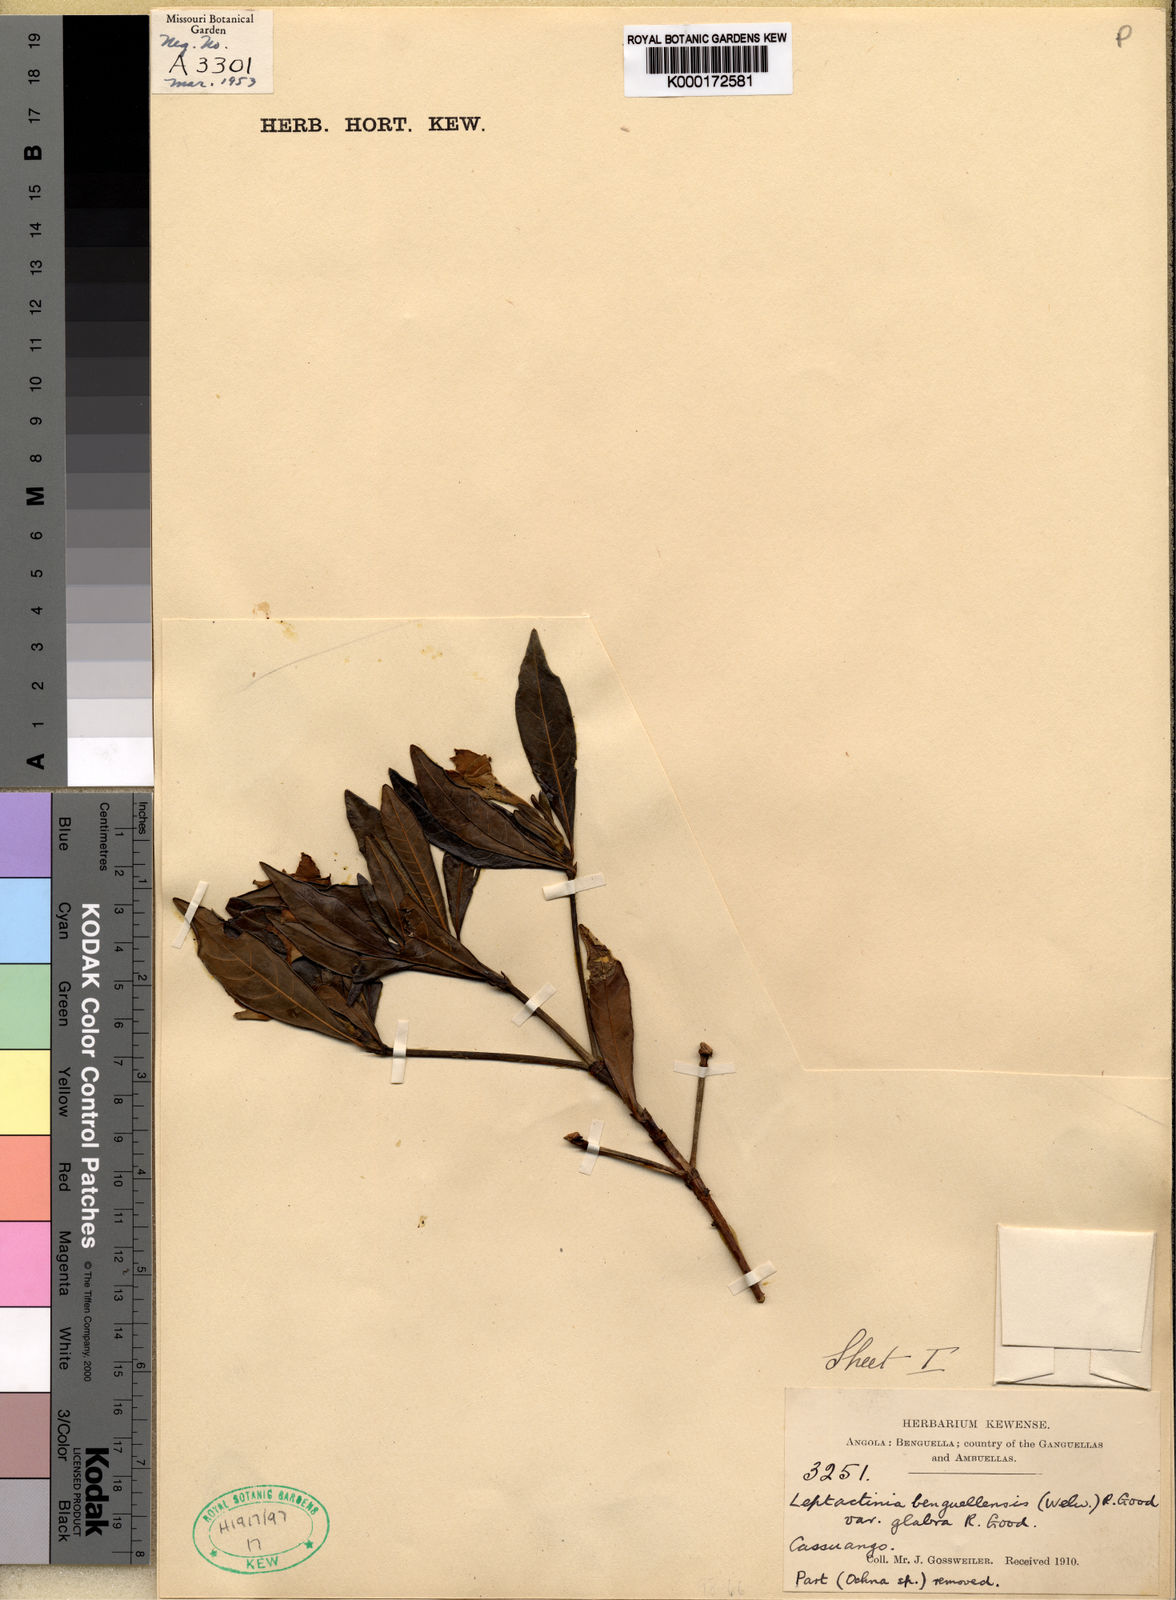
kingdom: Plantae
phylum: Tracheophyta
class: Magnoliopsida
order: Gentianales
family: Rubiaceae
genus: Leptactina
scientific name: Leptactina benguelensis
